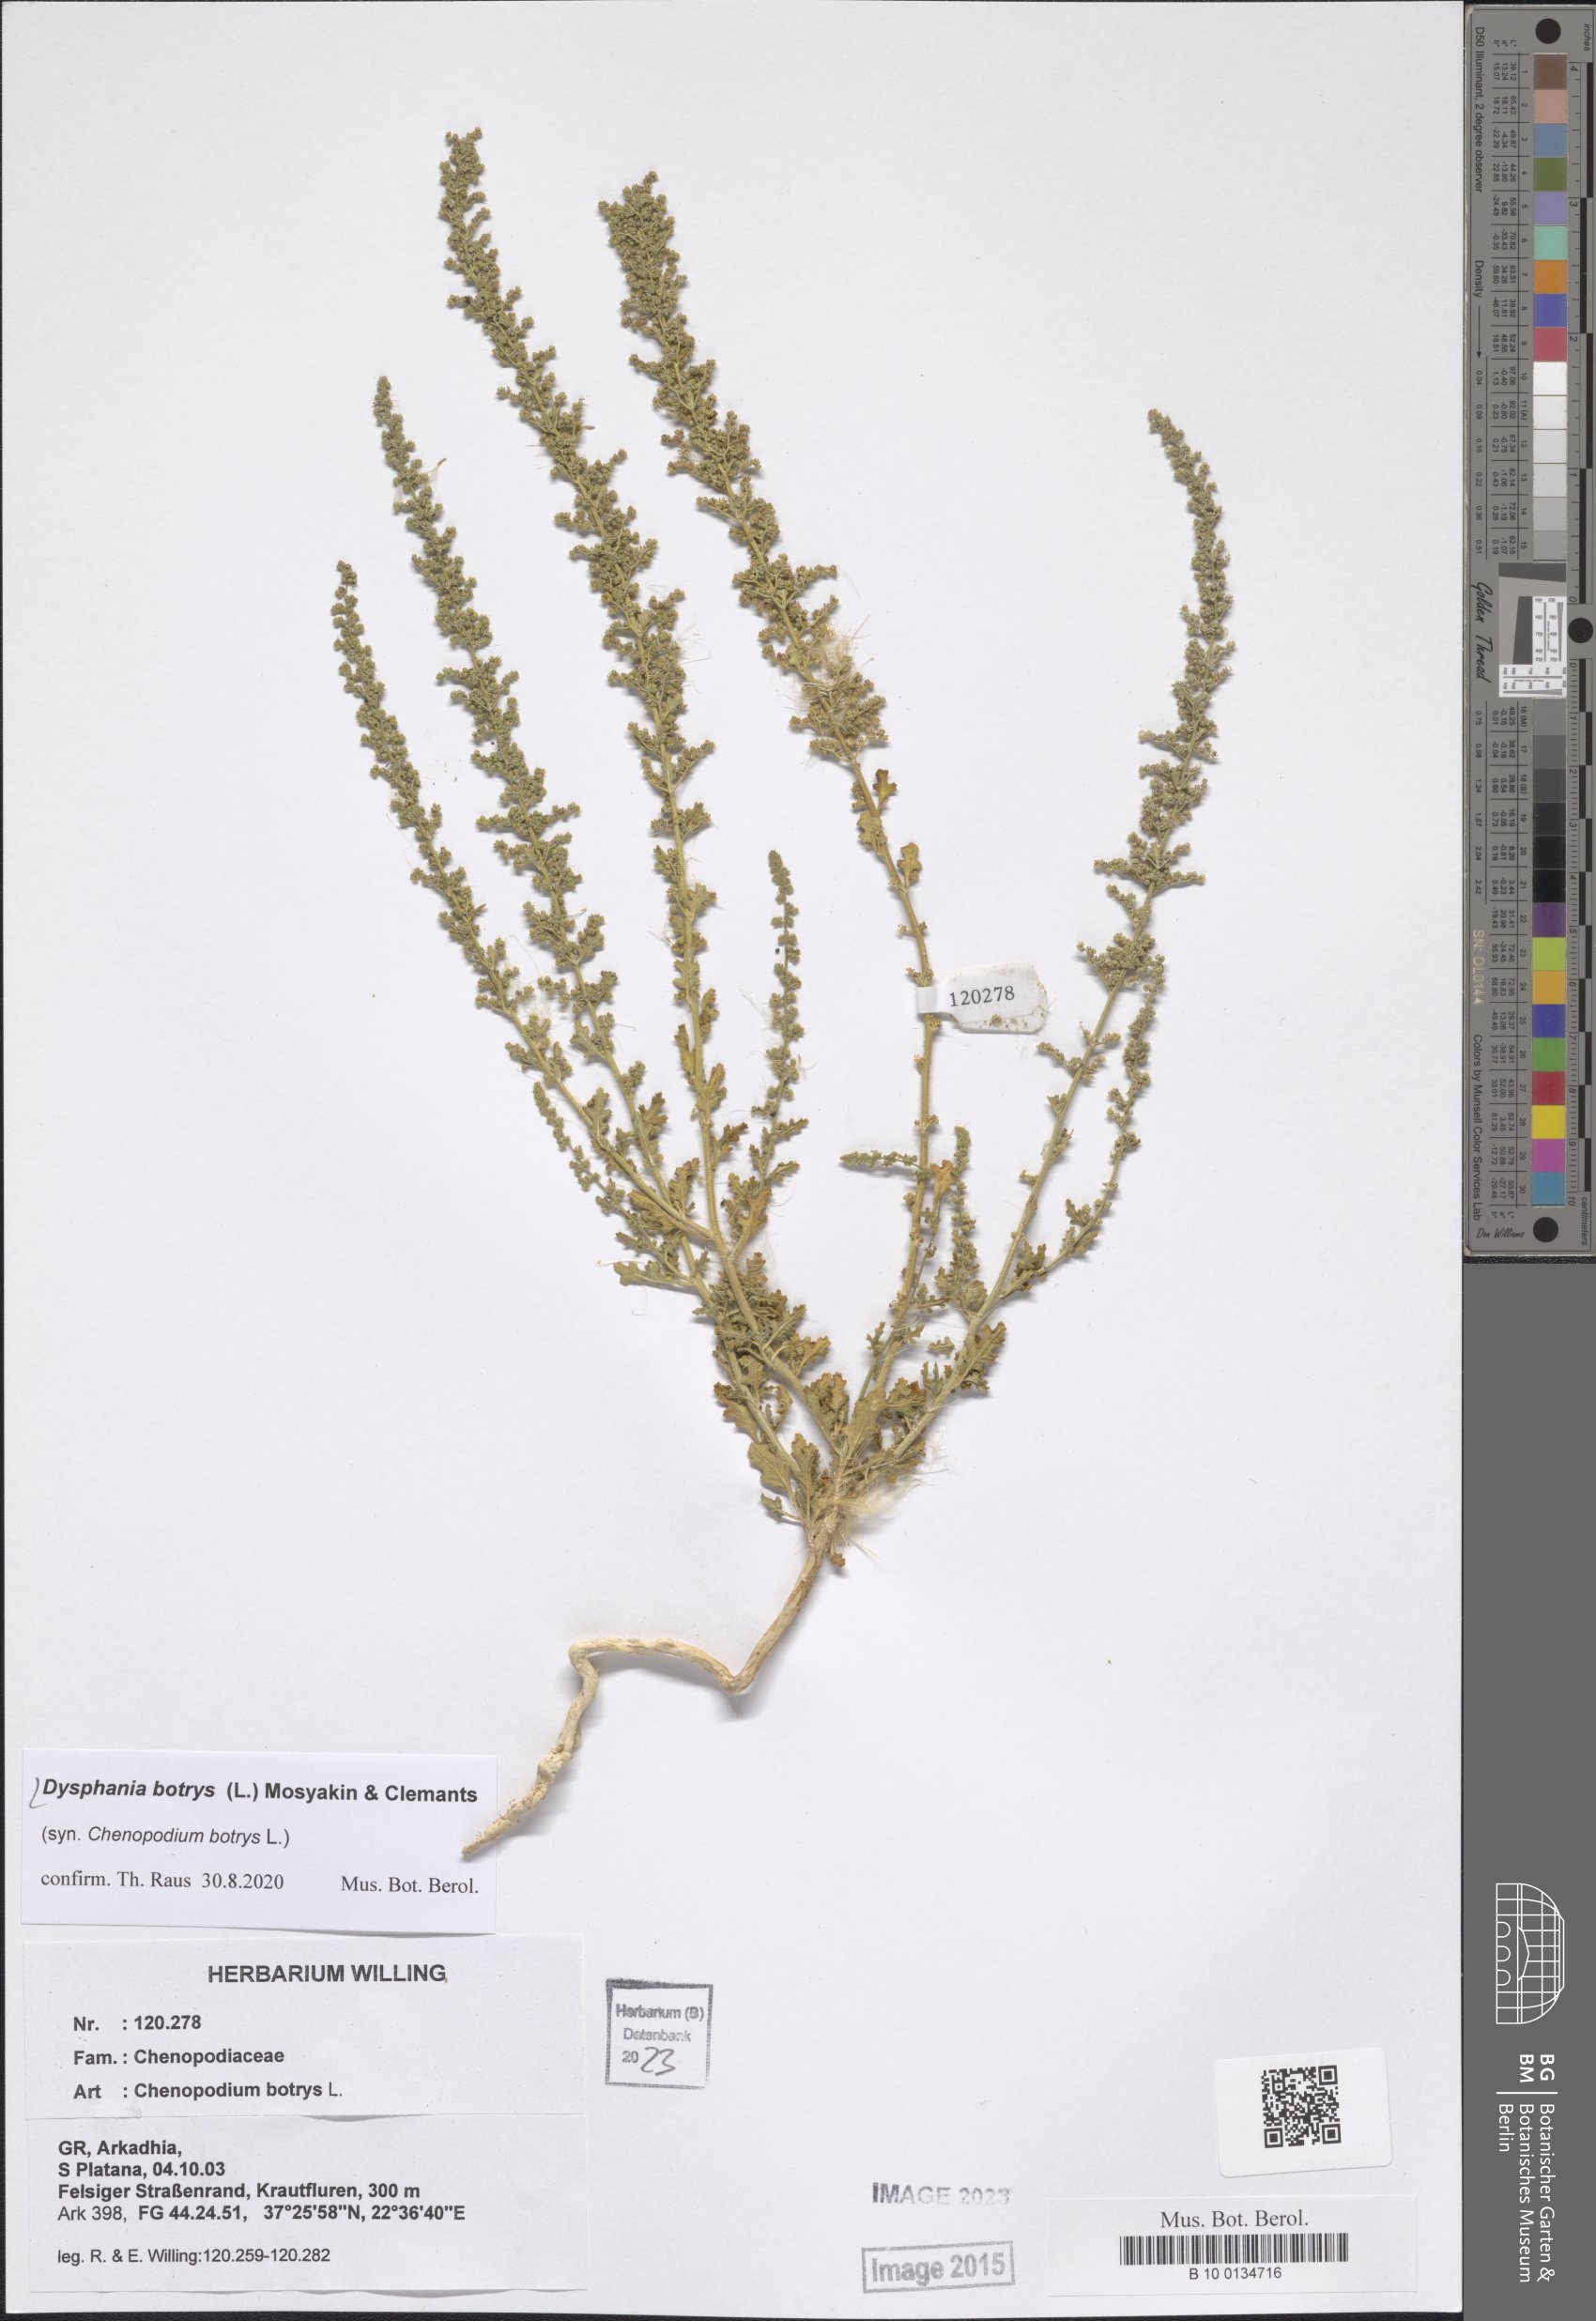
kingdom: Plantae
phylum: Tracheophyta
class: Magnoliopsida
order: Caryophyllales
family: Amaranthaceae
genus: Dysphania
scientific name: Dysphania botrys
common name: Feather-geranium
